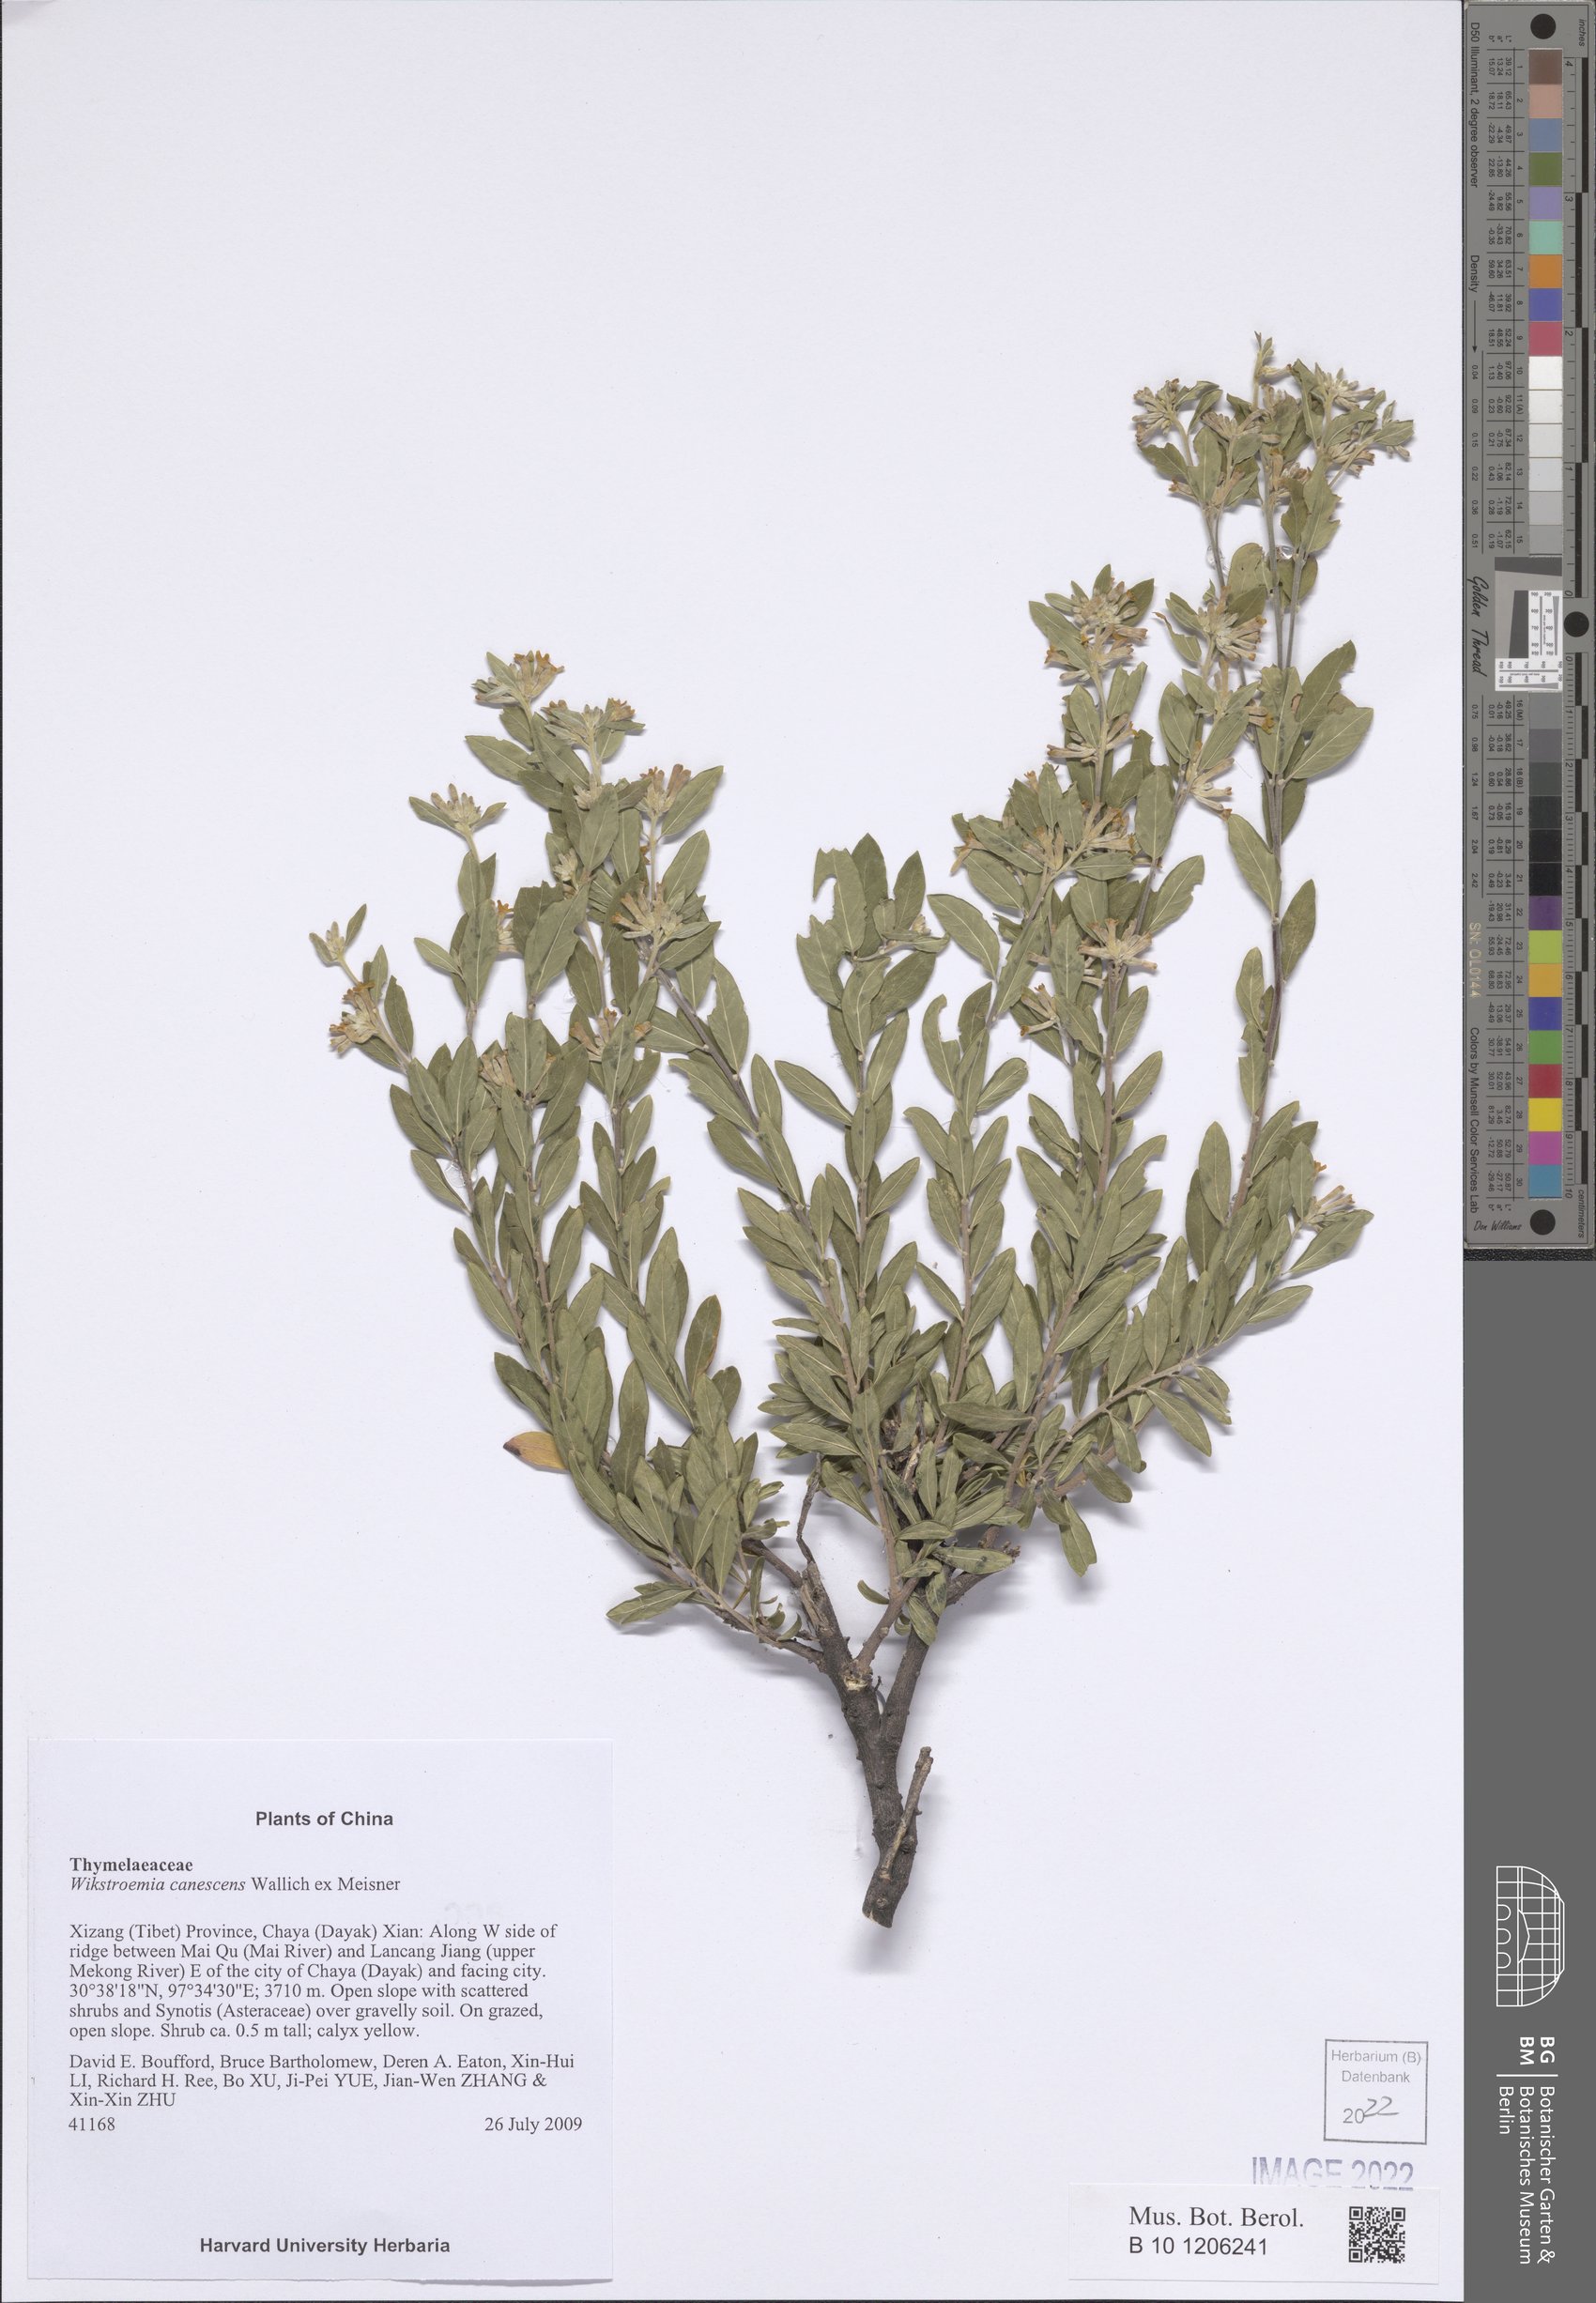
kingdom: Plantae
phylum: Tracheophyta
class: Magnoliopsida
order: Malvales
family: Thymelaeaceae
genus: Wikstroemia
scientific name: Wikstroemia canescens
